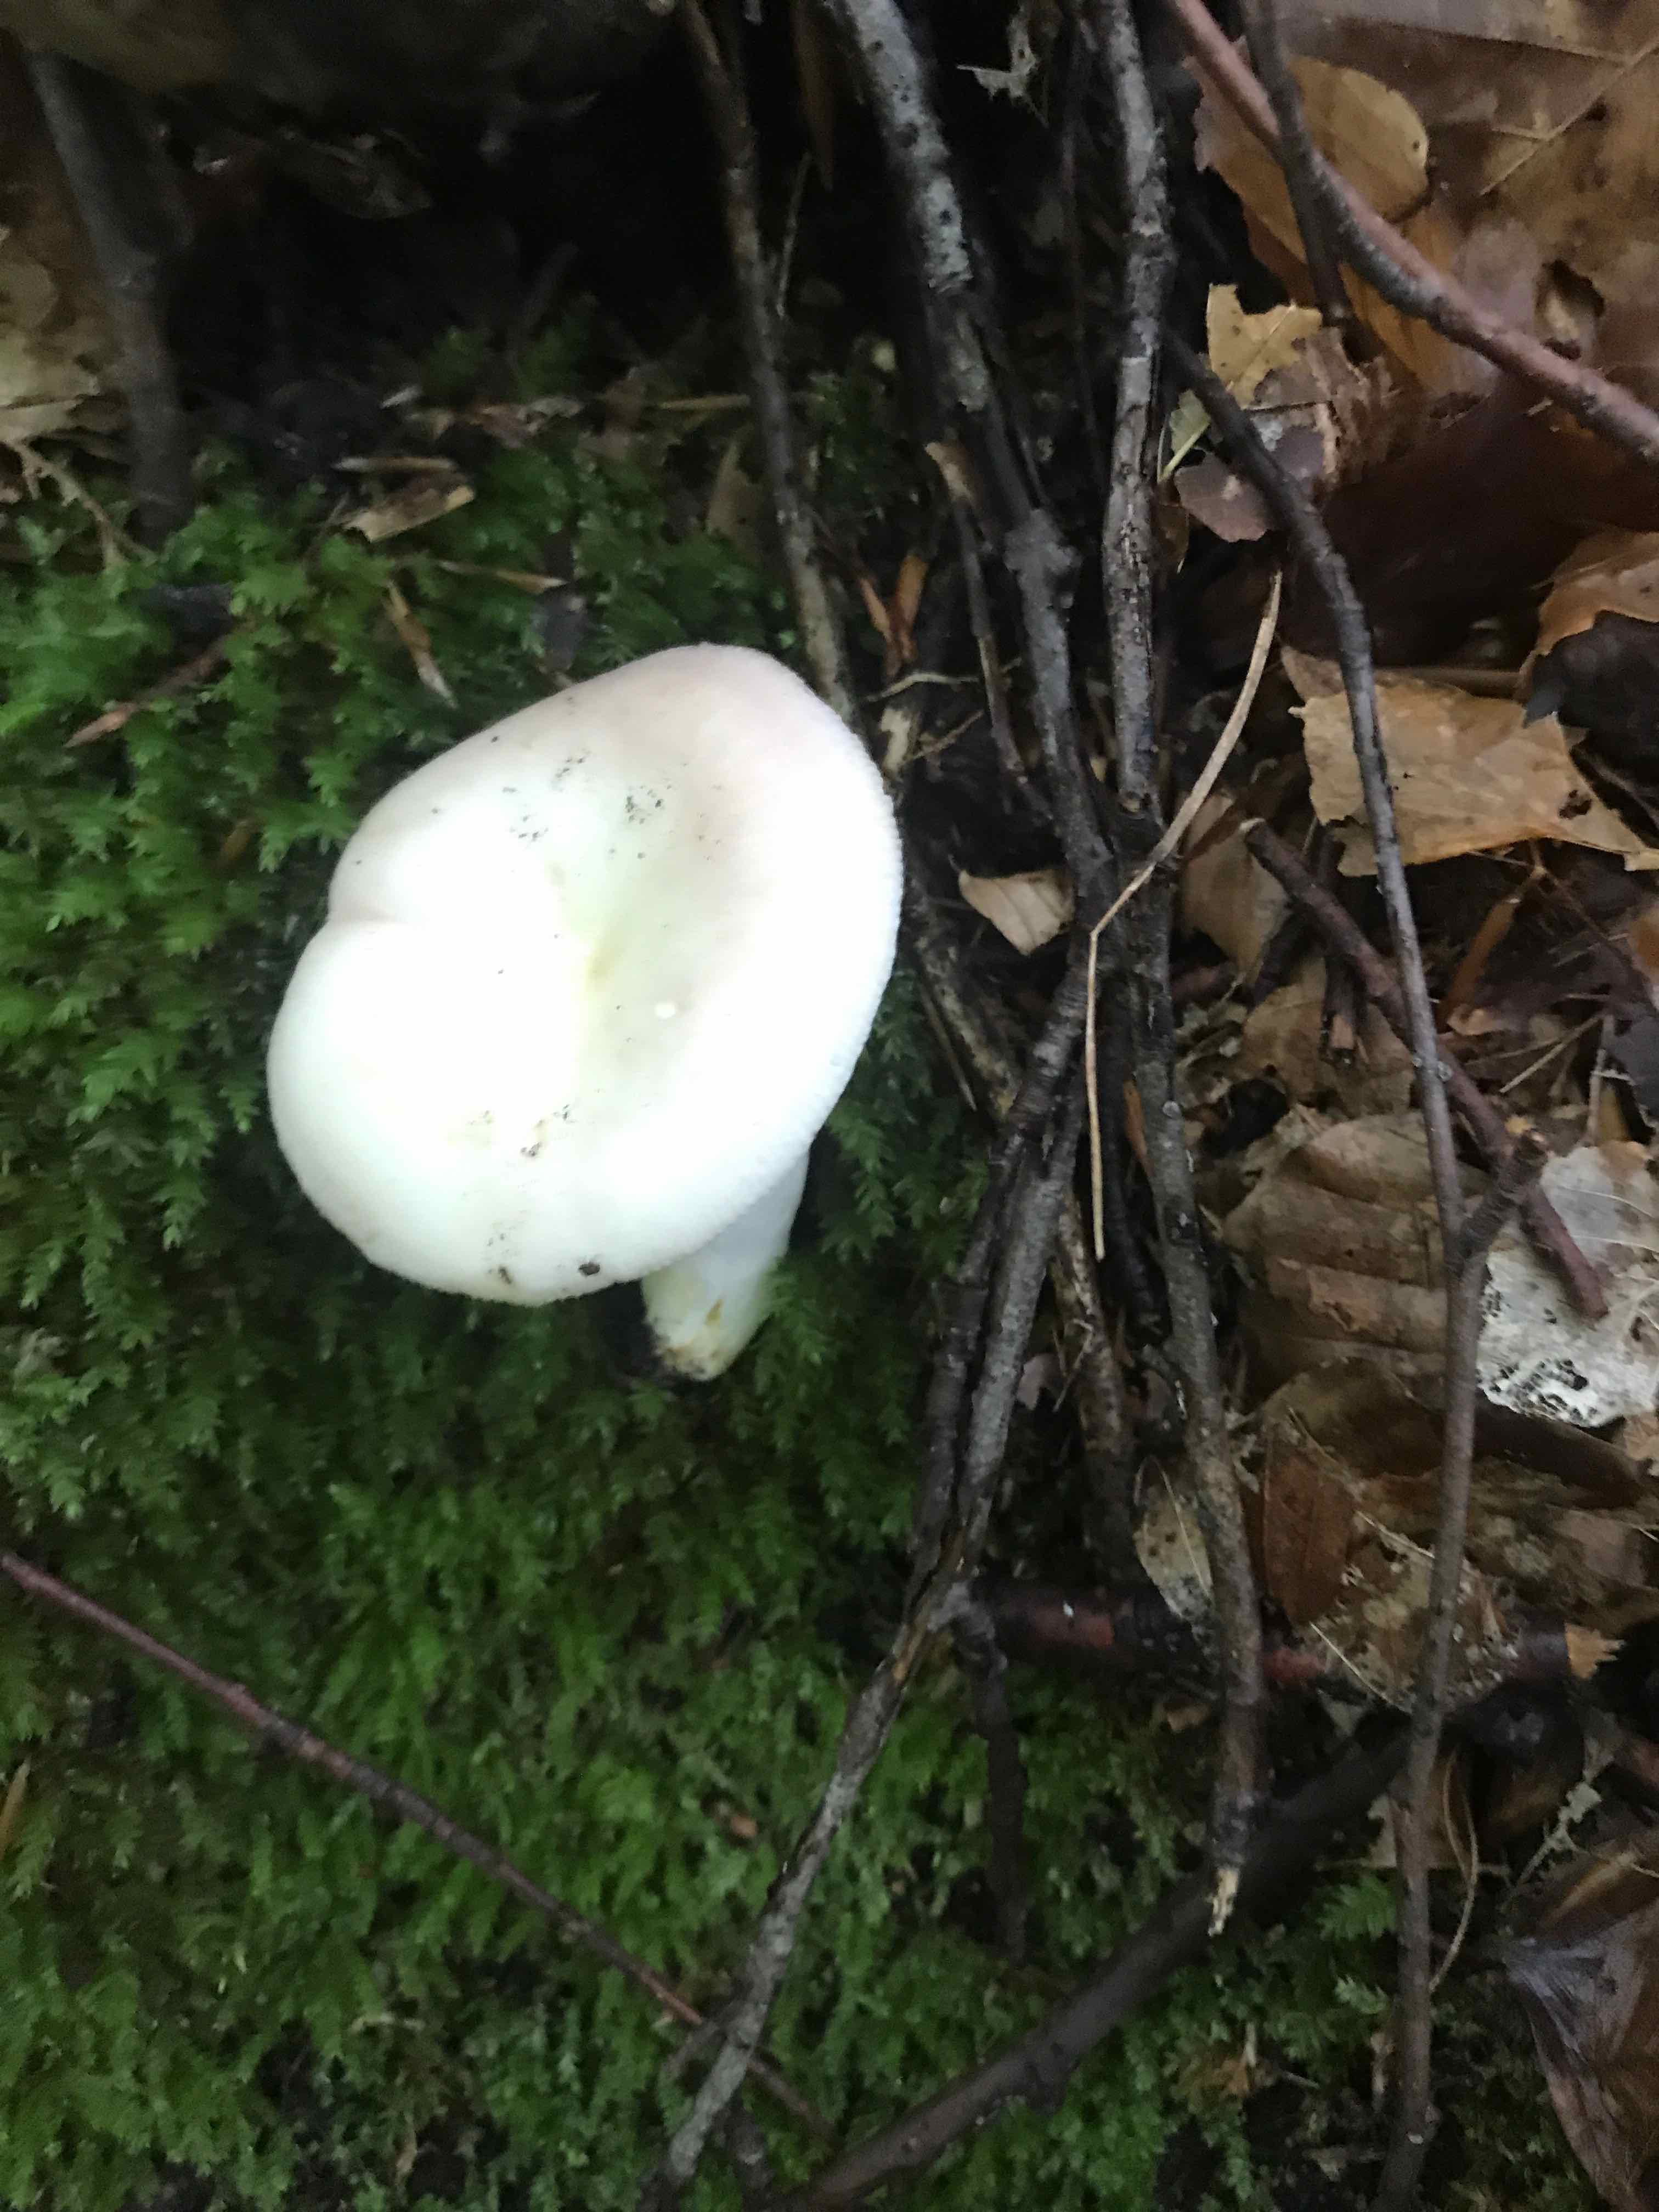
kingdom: Fungi
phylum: Basidiomycota
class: Agaricomycetes
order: Russulales
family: Russulaceae
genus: Russula
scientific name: Russula
